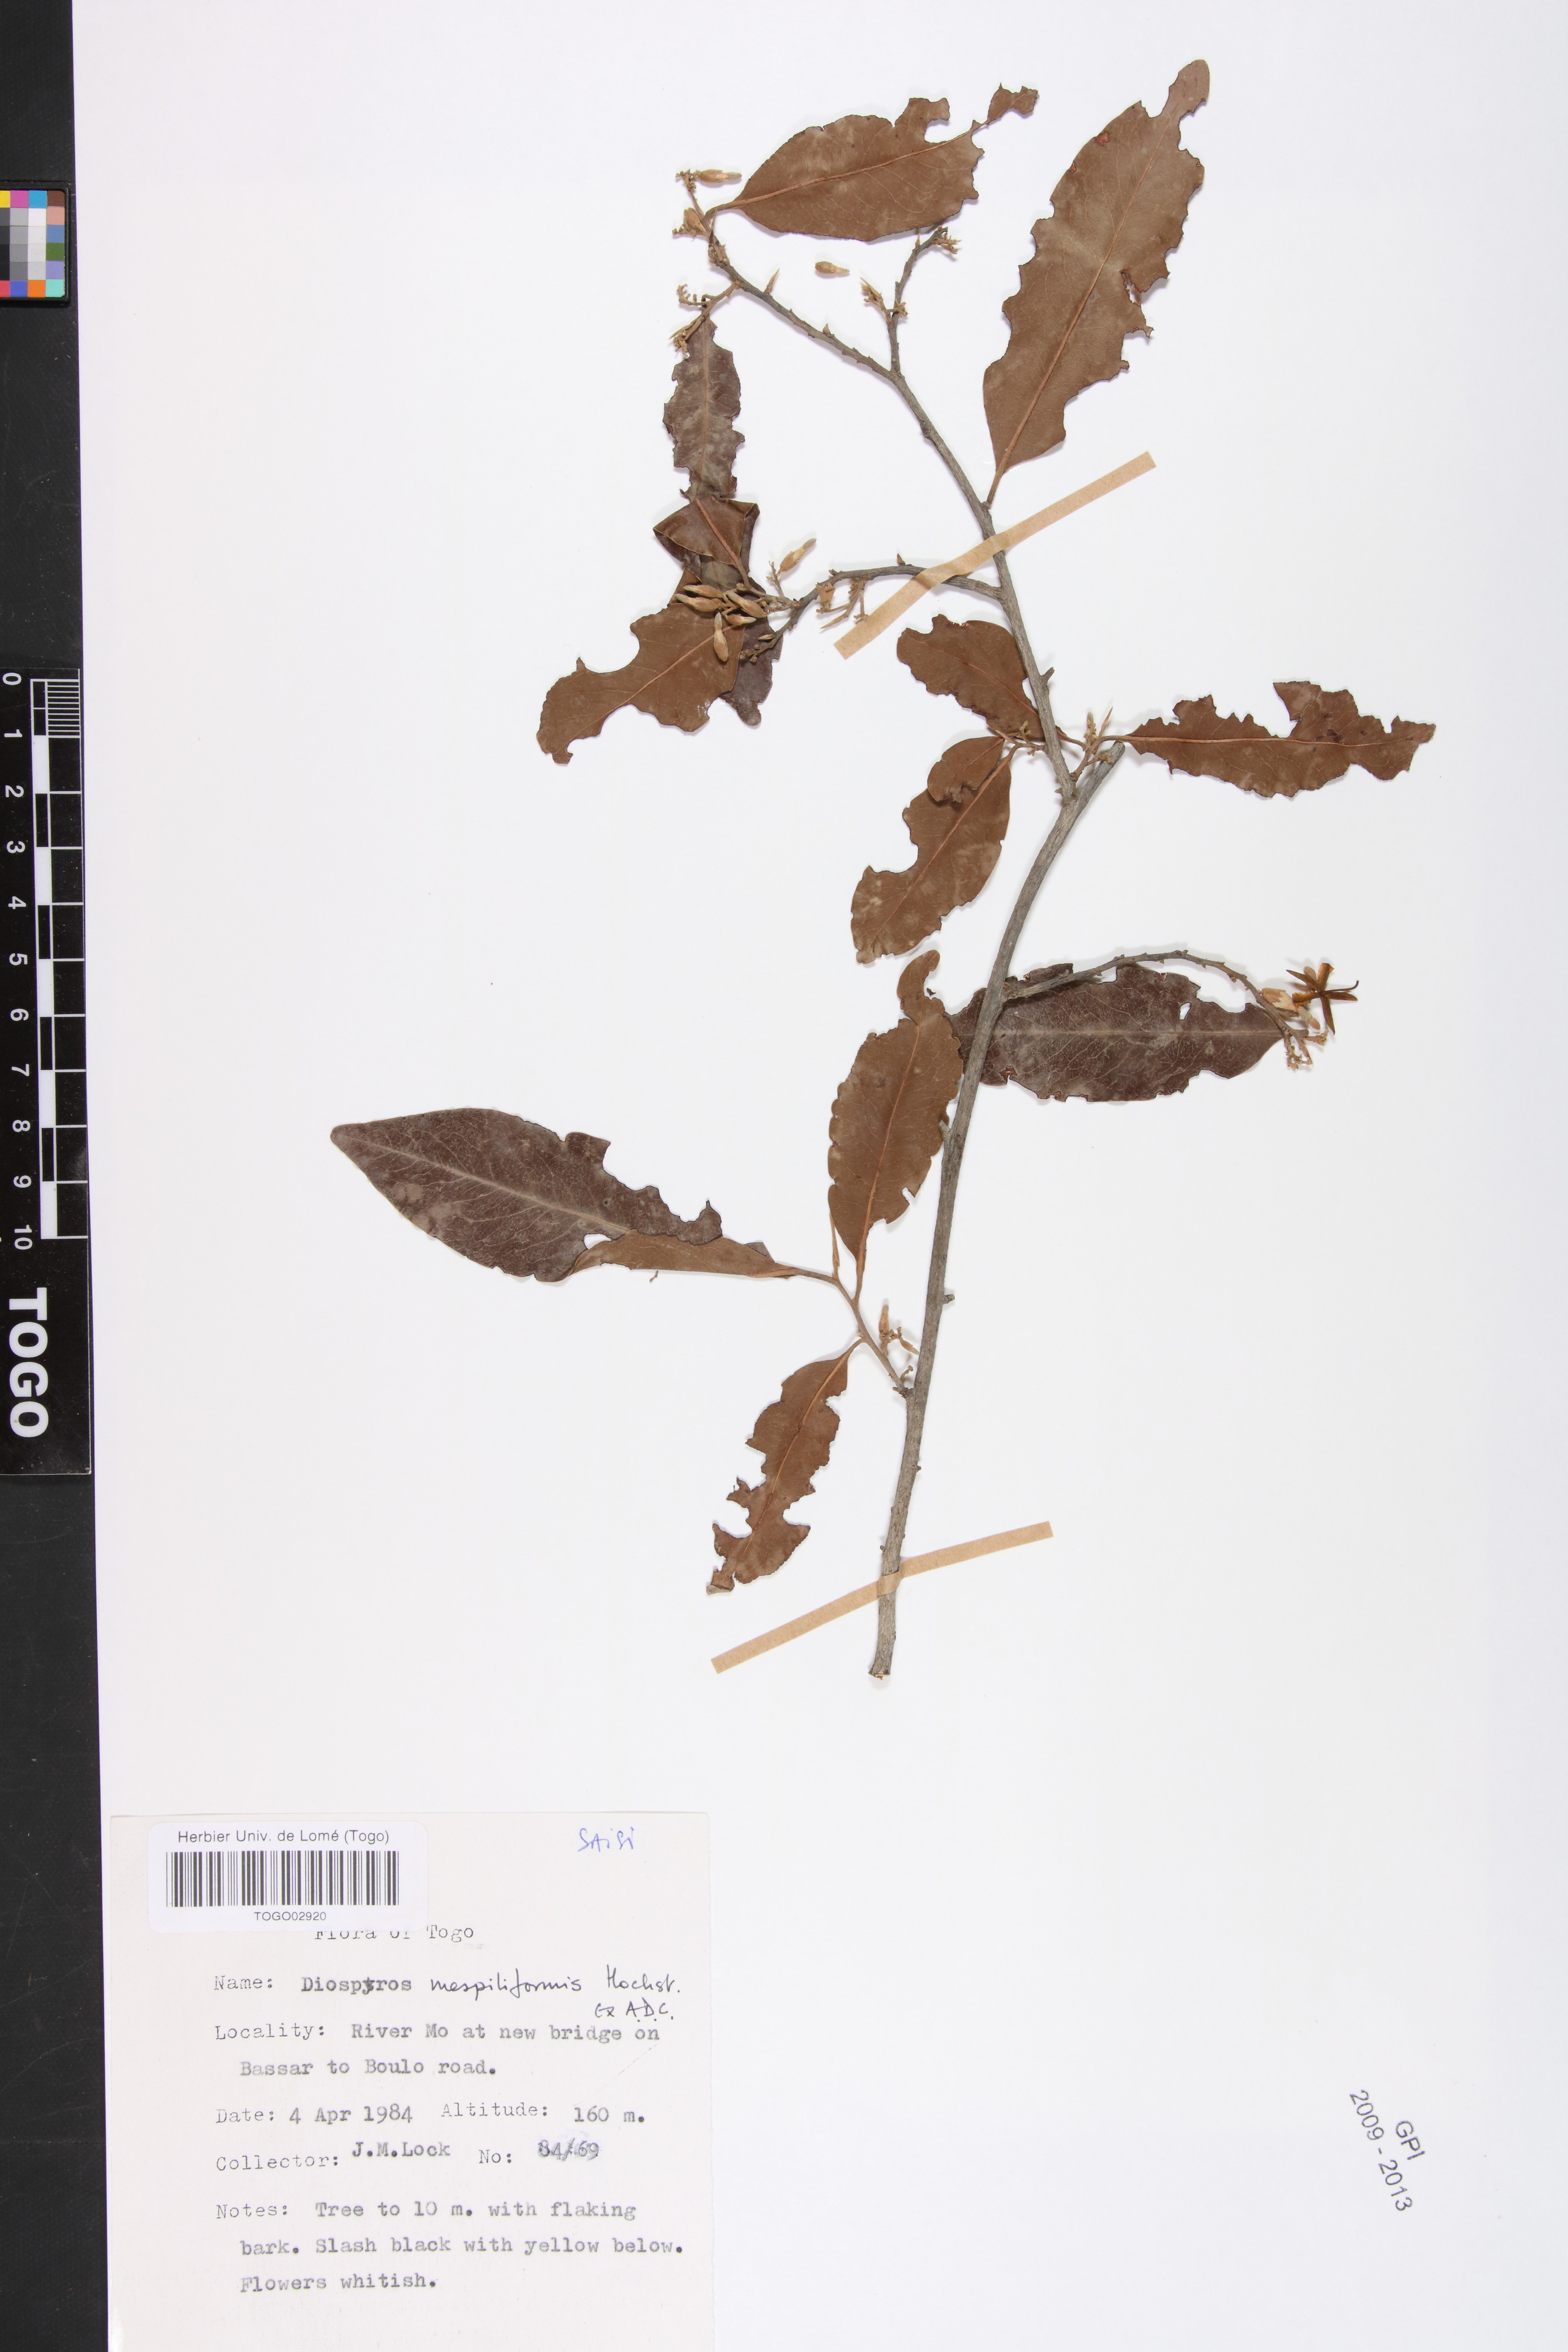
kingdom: Plantae
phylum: Tracheophyta
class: Magnoliopsida
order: Ericales
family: Ebenaceae
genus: Diospyros
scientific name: Diospyros mespiliformis
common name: Ebony diospyros
